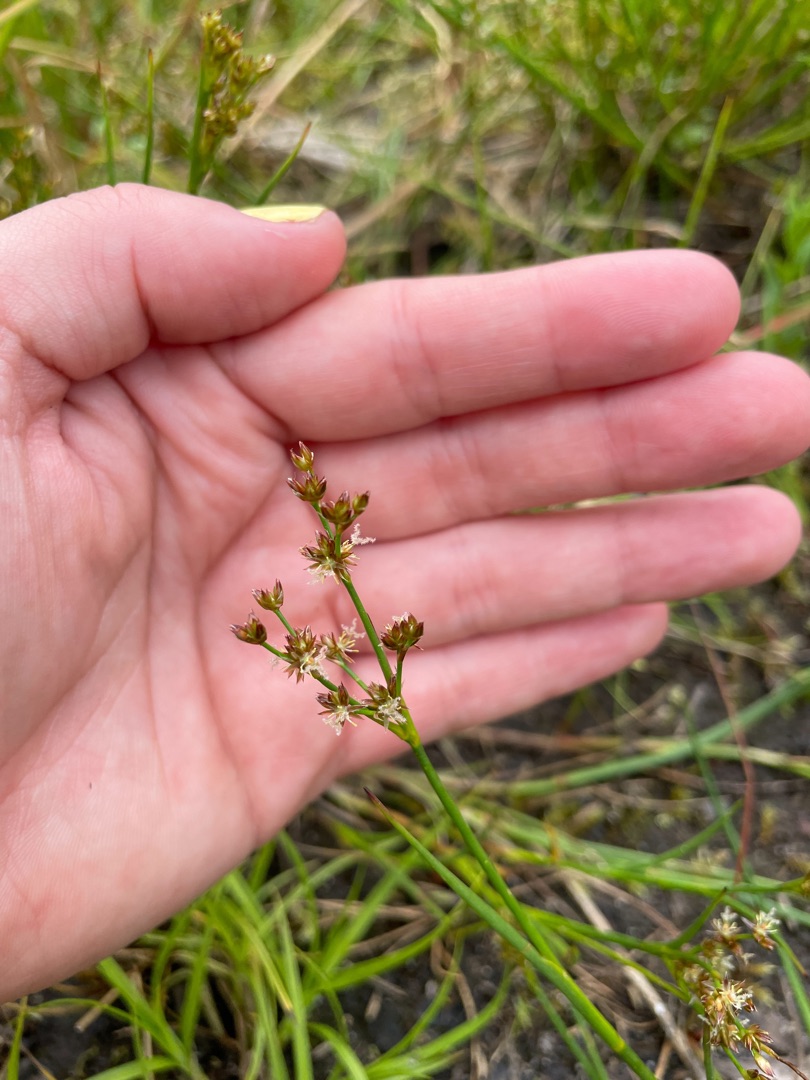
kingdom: Plantae
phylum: Tracheophyta
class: Liliopsida
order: Poales
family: Juncaceae
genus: Juncus
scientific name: Juncus articulatus
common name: Glanskapslet siv
